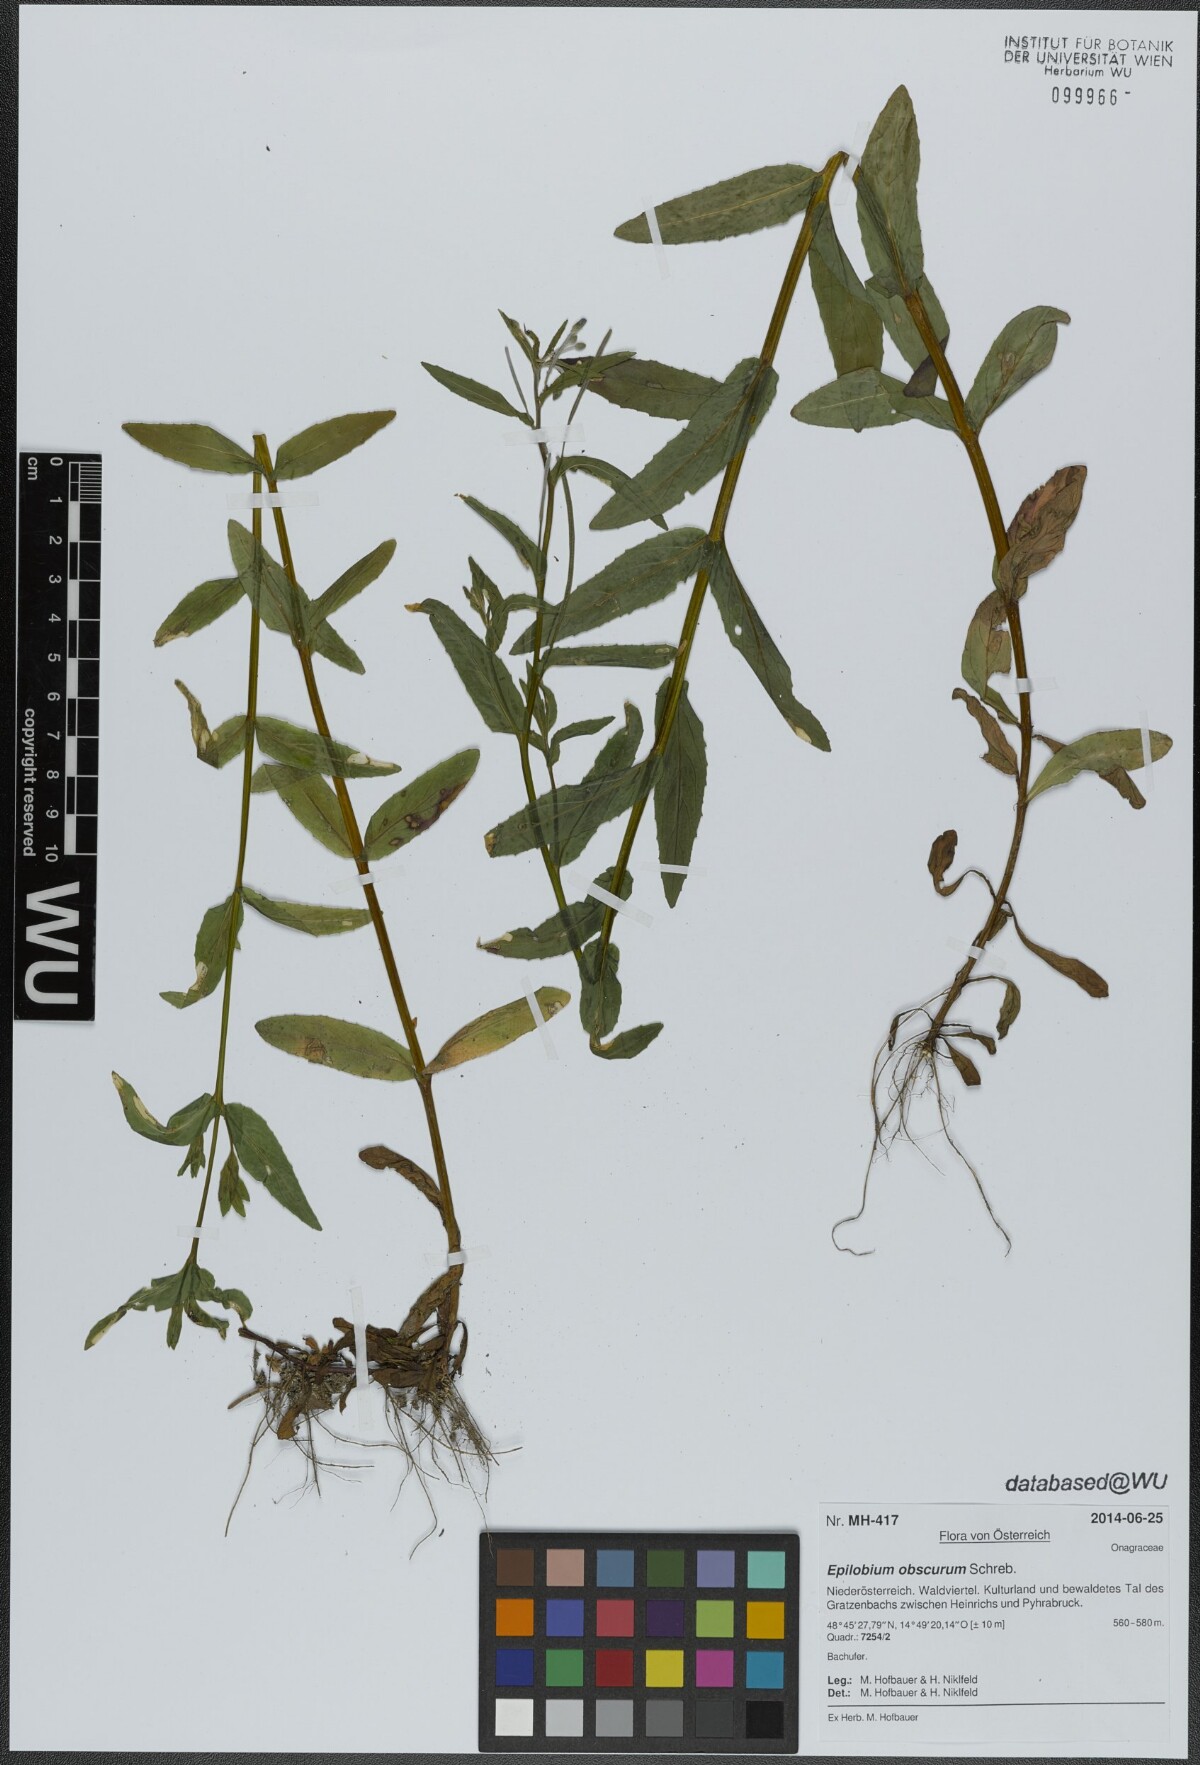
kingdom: Plantae
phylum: Tracheophyta
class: Magnoliopsida
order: Myrtales
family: Onagraceae
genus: Epilobium
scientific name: Epilobium obscurum
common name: Short-fruited willowherb
